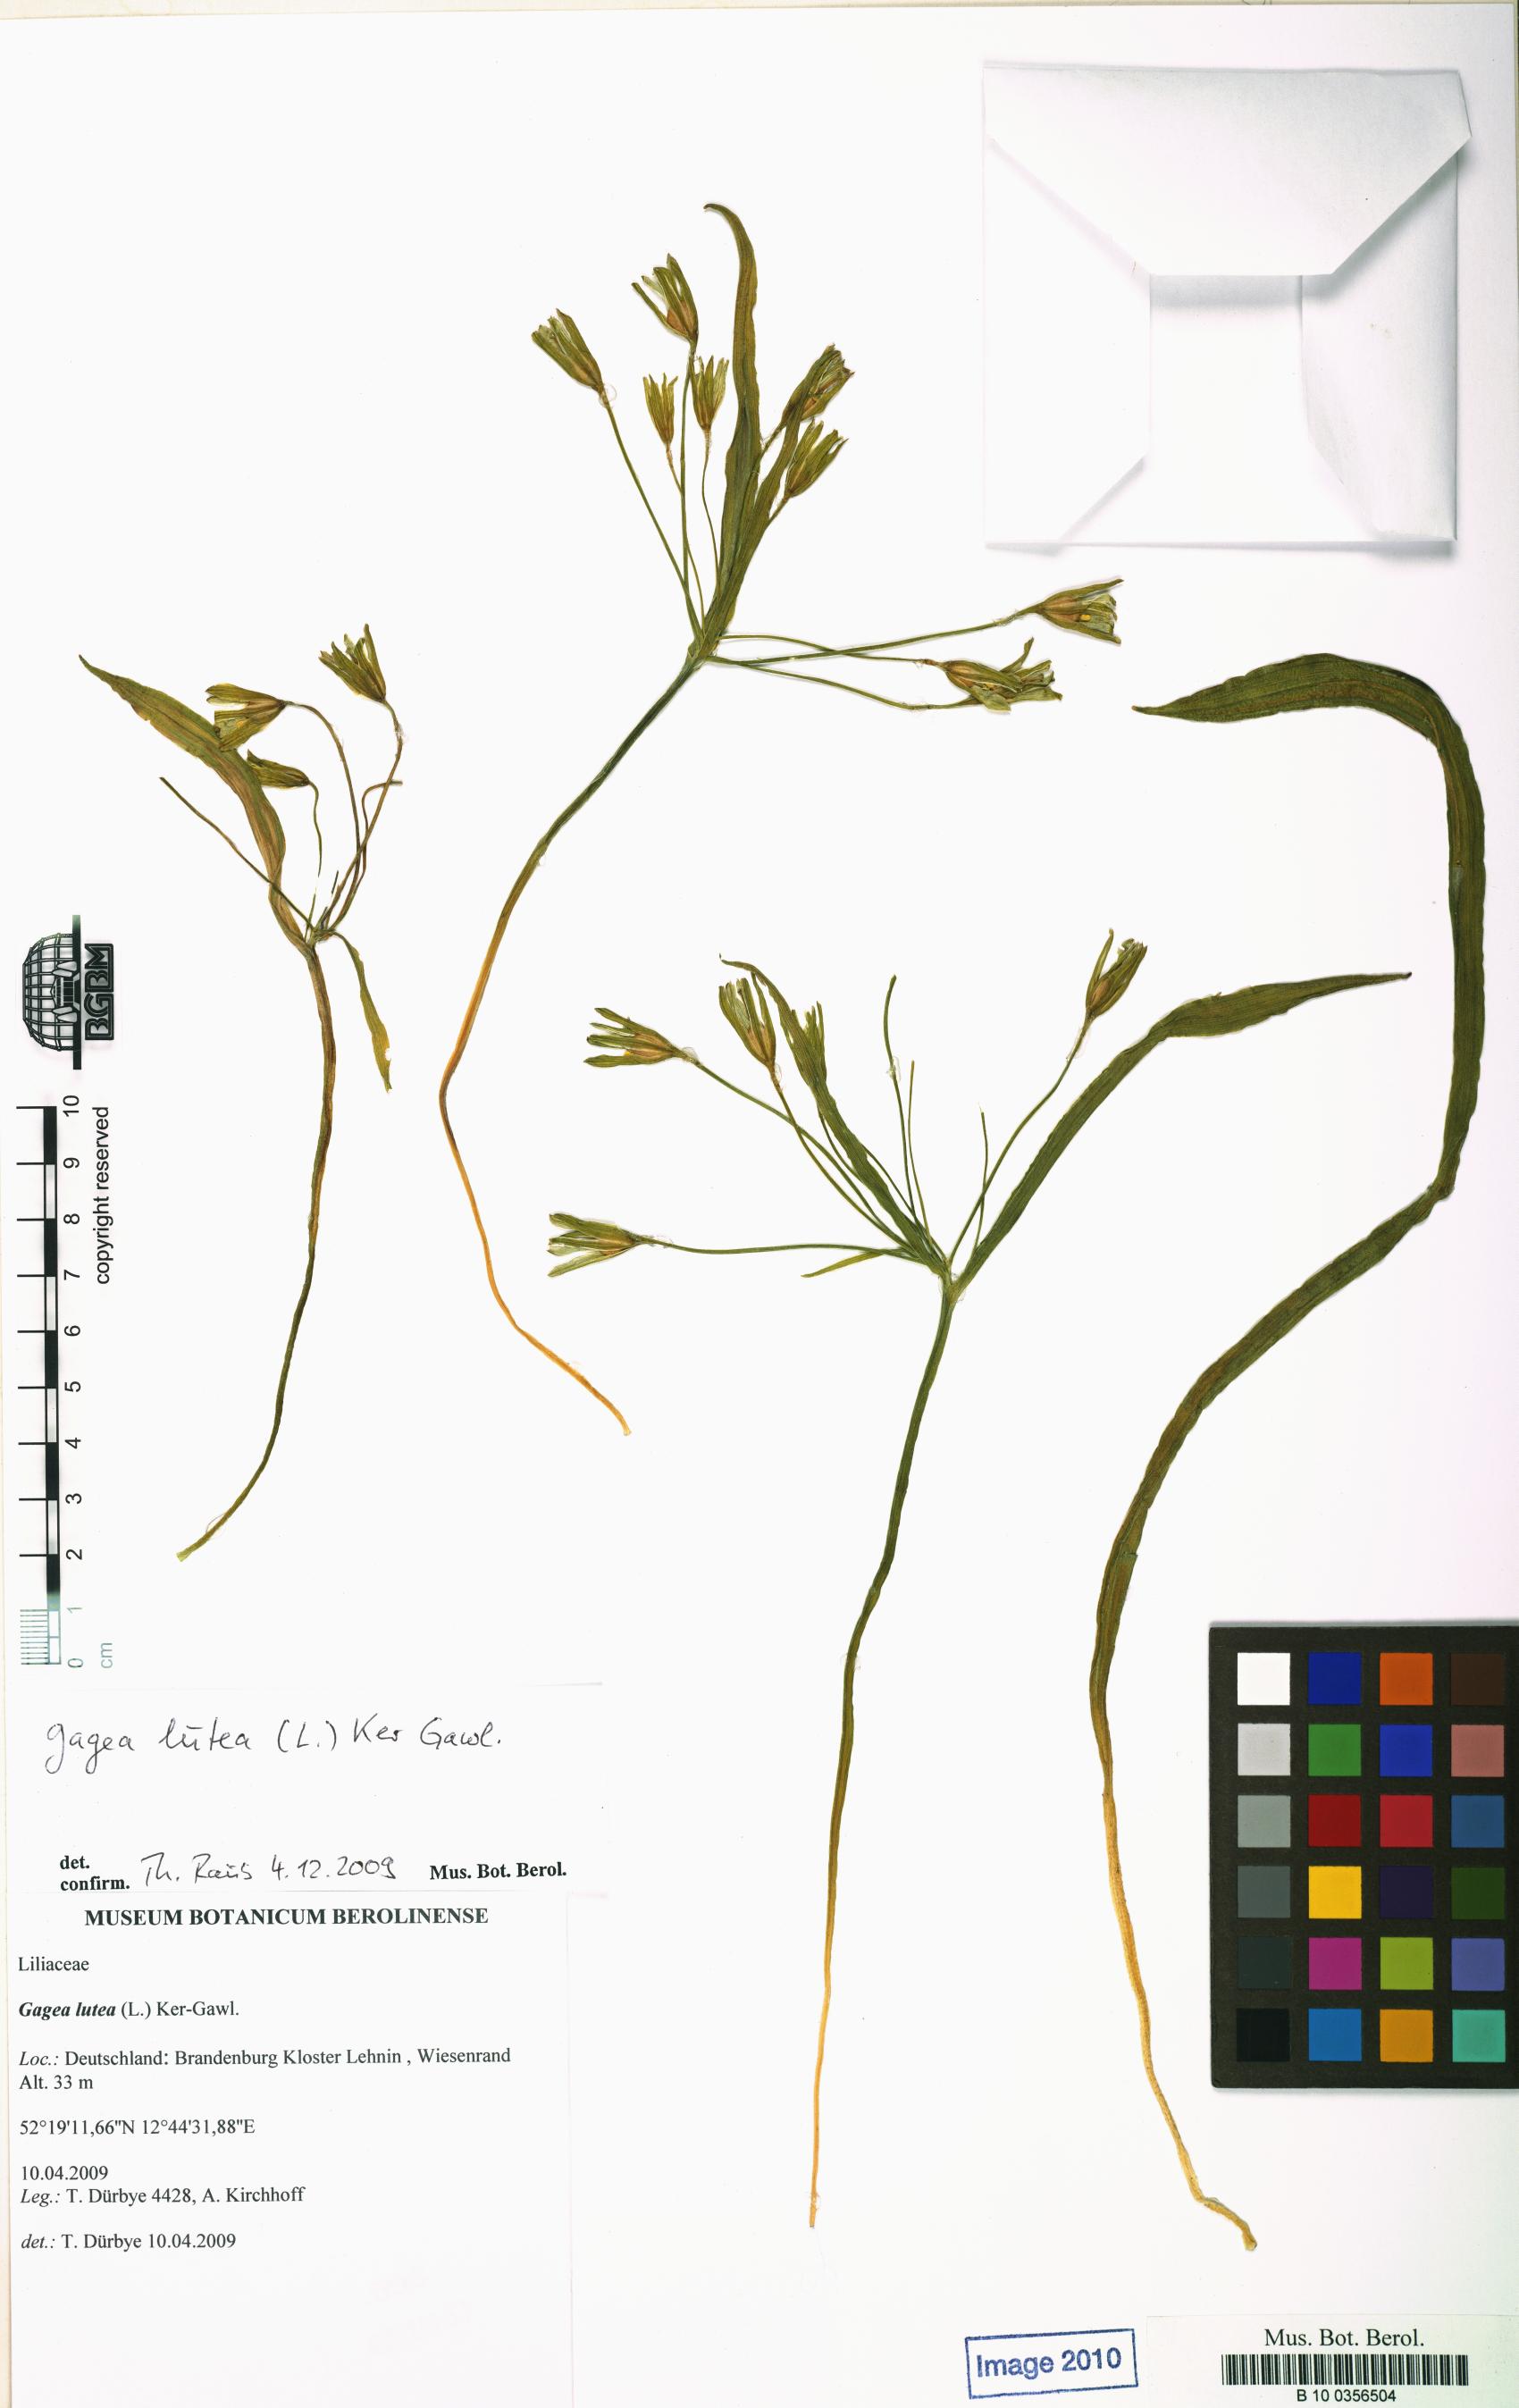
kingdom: Plantae
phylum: Tracheophyta
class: Liliopsida
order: Liliales
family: Liliaceae
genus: Gagea
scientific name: Gagea lutea
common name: Yellow star-of-bethlehem
